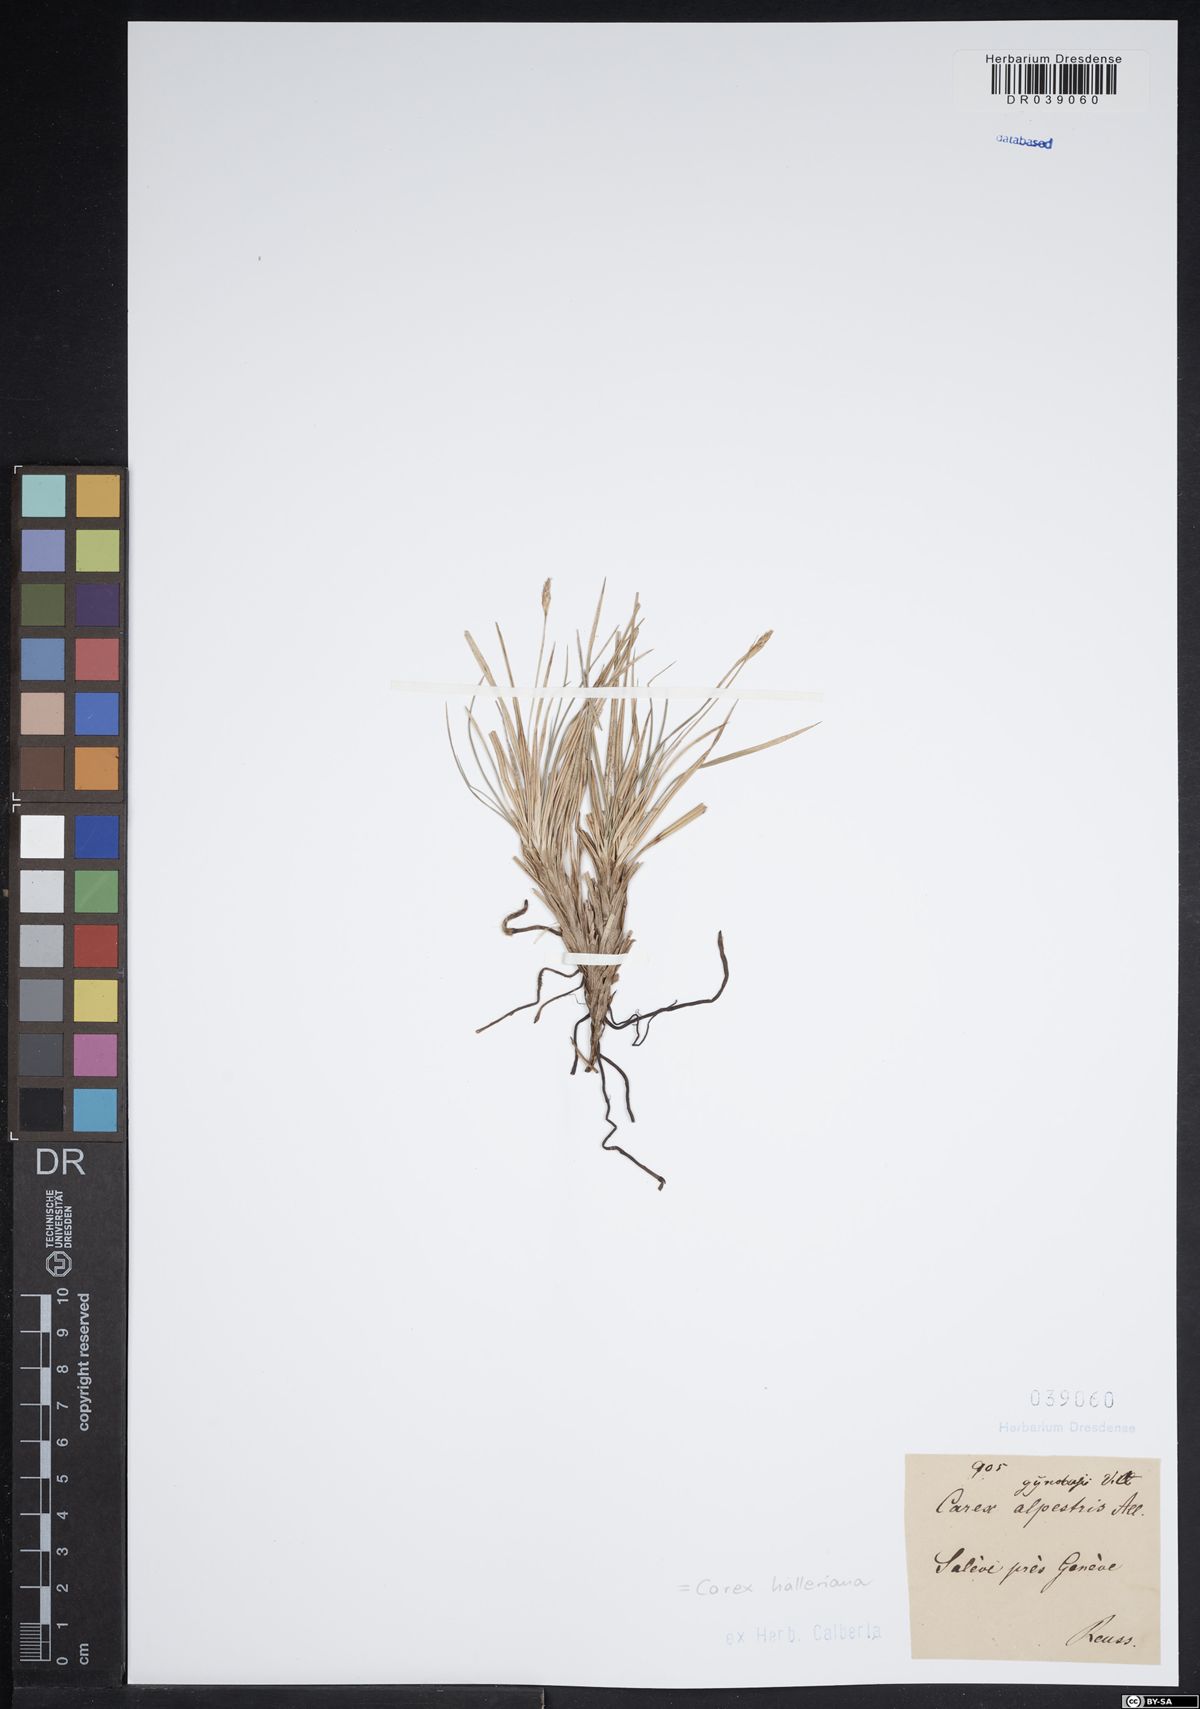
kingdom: Plantae
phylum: Tracheophyta
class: Liliopsida
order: Poales
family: Cyperaceae
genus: Carex
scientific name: Carex halleriana
